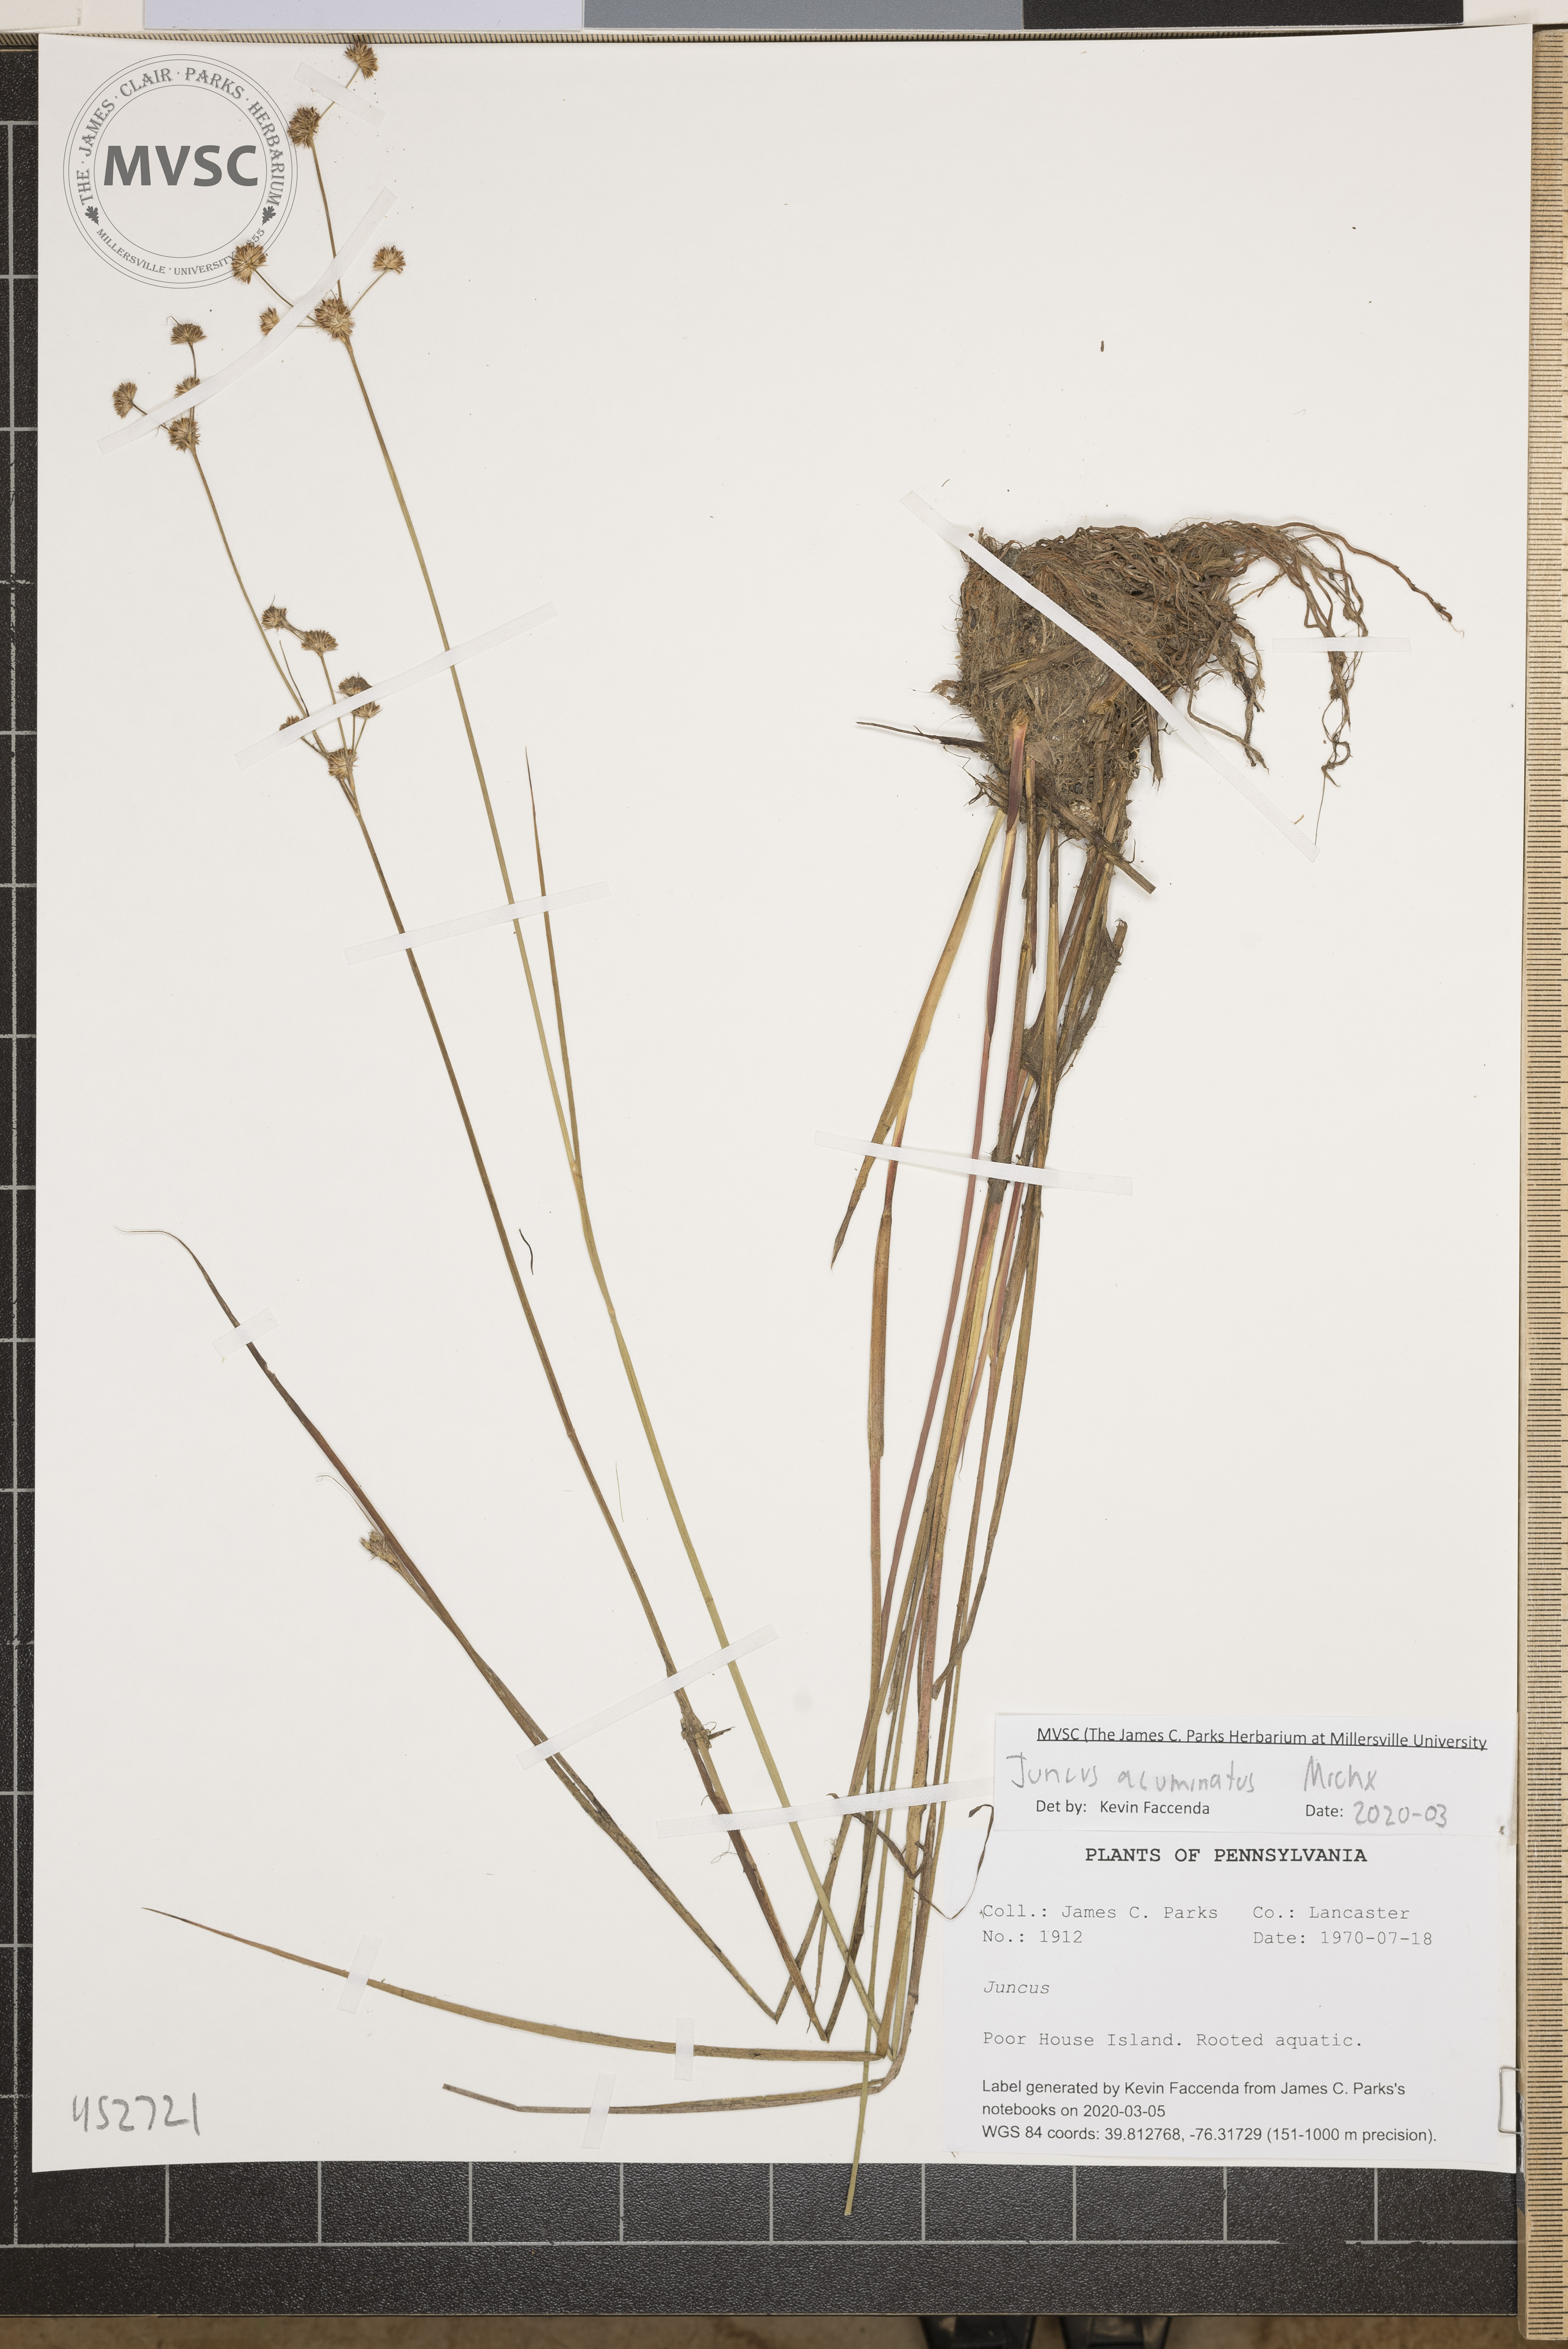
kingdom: Plantae
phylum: Tracheophyta
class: Liliopsida
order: Poales
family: Juncaceae
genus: Juncus
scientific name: Juncus acuminatus
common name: Knotty-leaved rush
